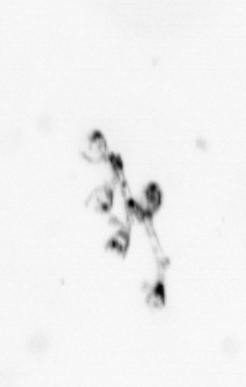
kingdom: Animalia
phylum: Cnidaria
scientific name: Cnidaria
